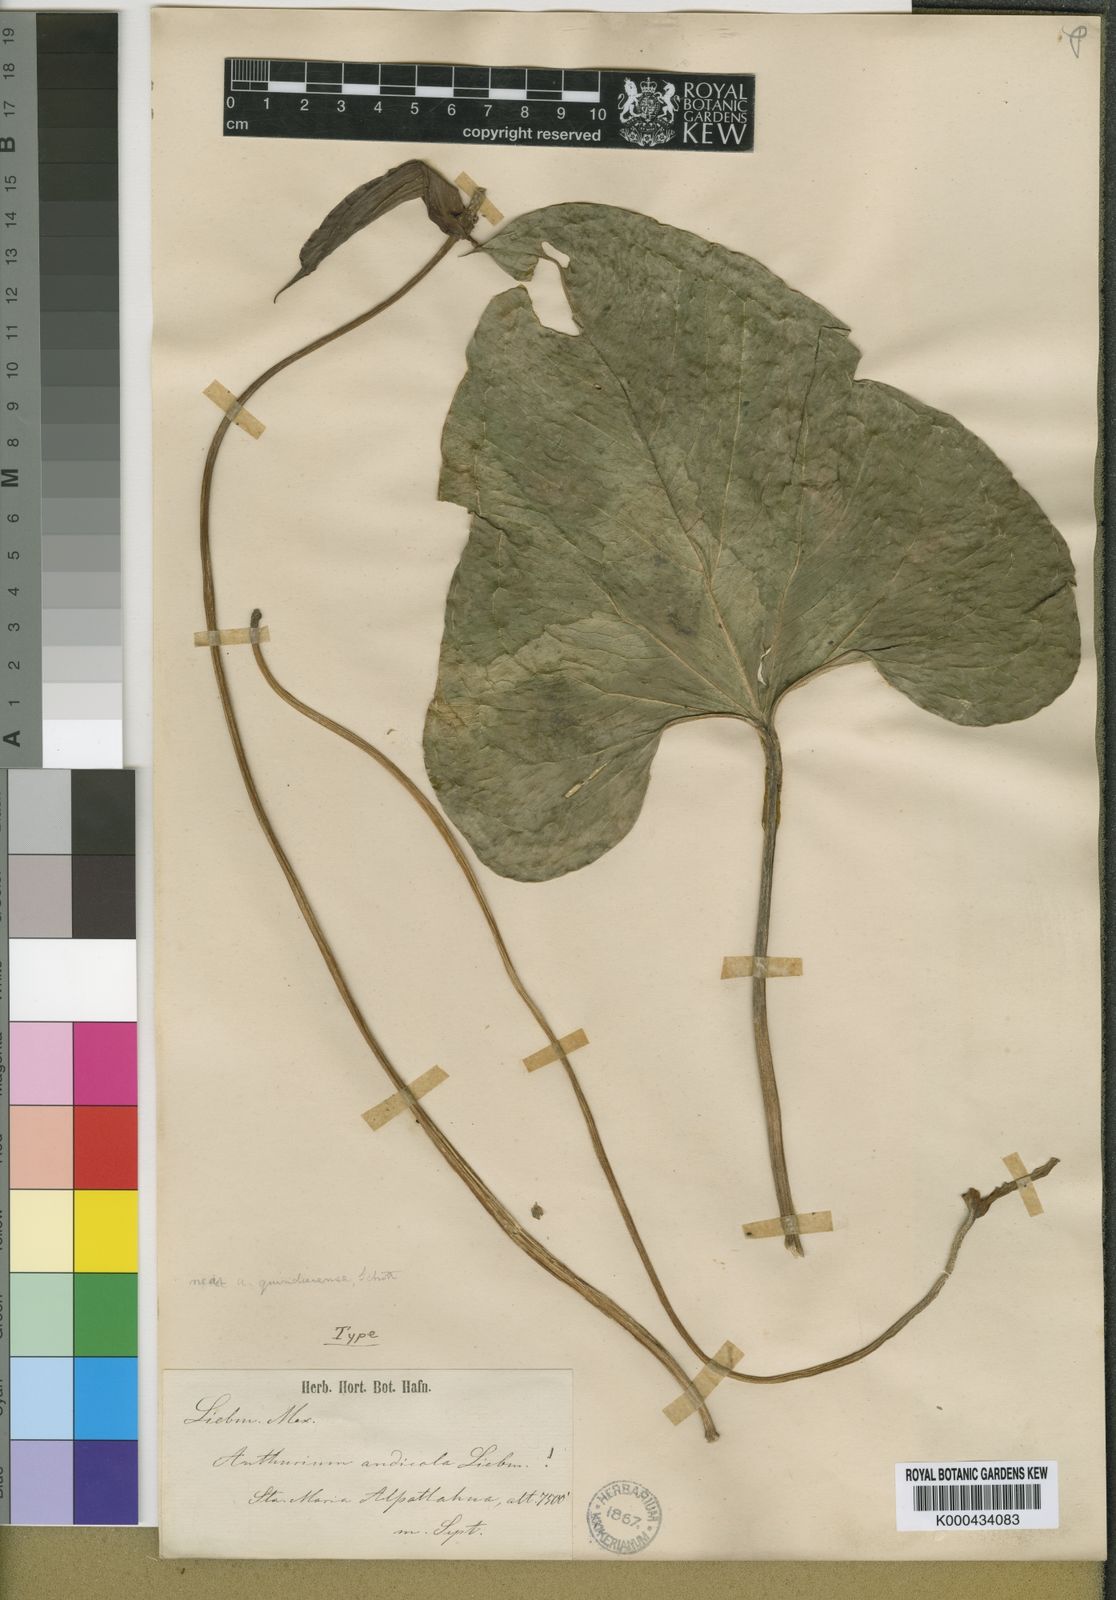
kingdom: Plantae
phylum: Tracheophyta
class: Liliopsida
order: Alismatales
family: Araceae
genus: Anthurium
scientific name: Anthurium andicola
